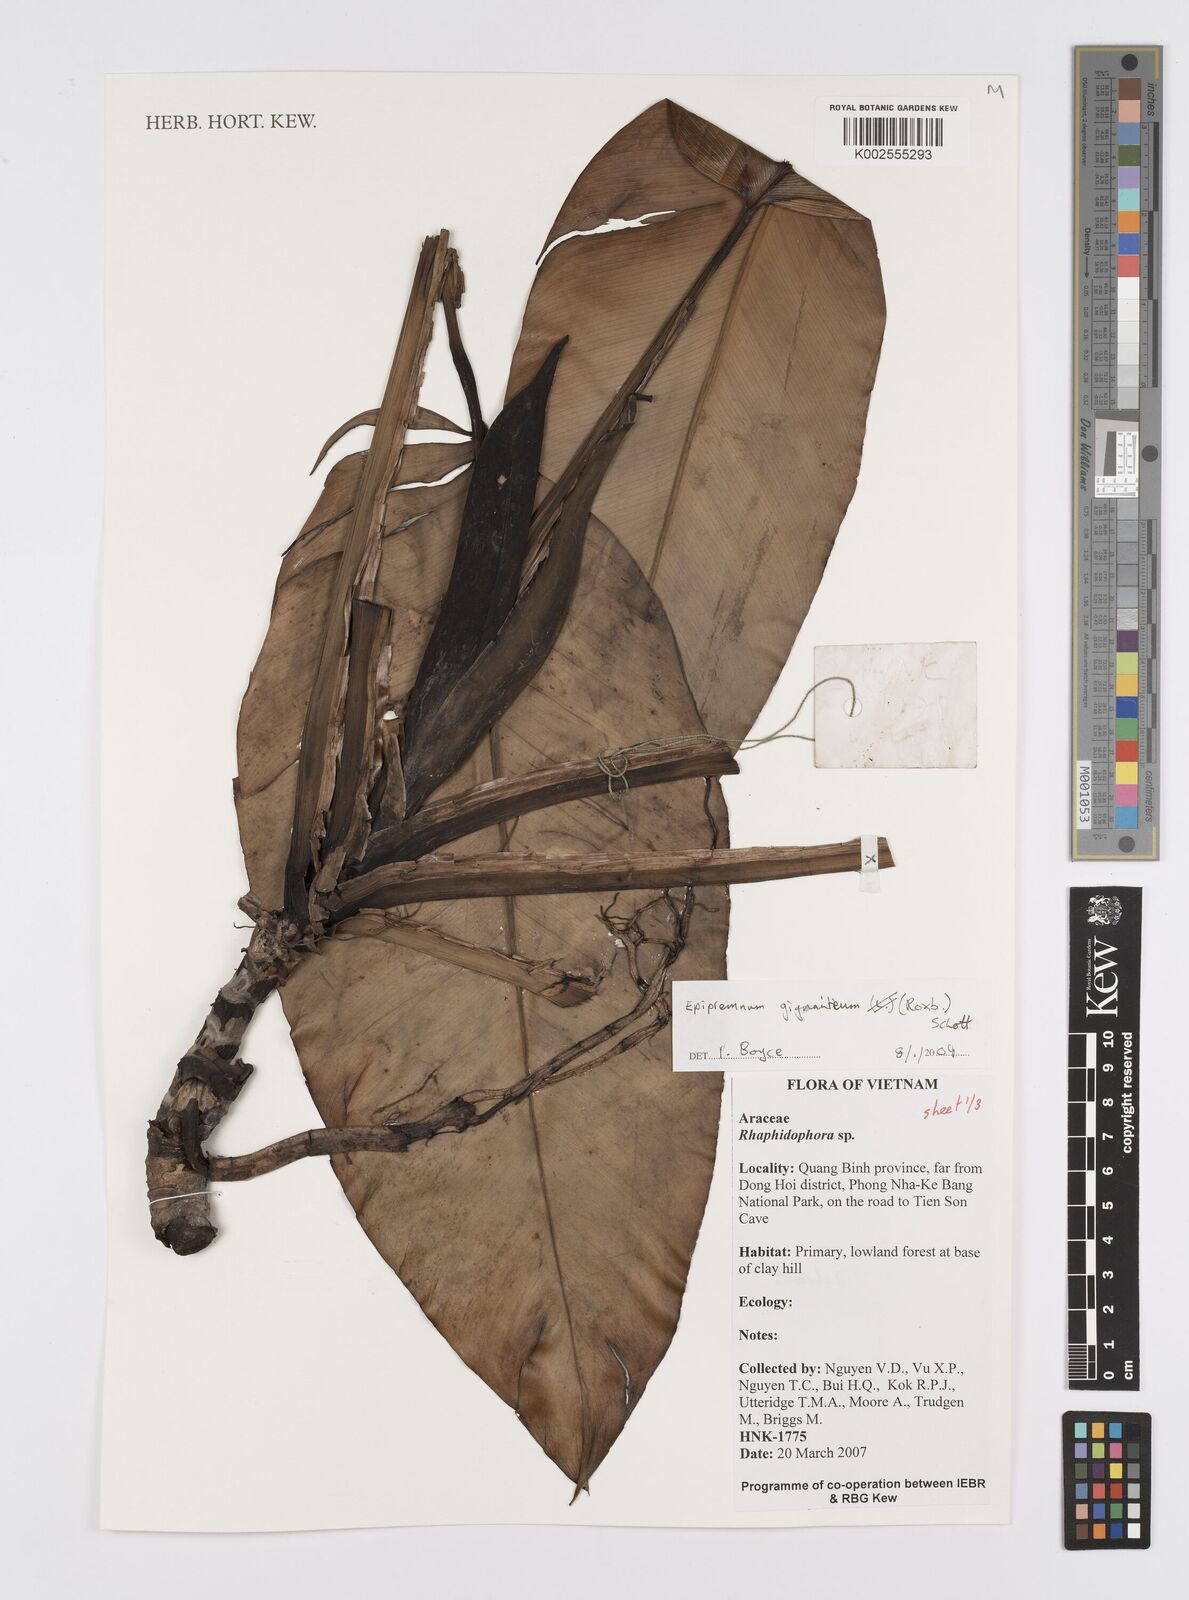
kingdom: Plantae
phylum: Tracheophyta
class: Liliopsida
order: Alismatales
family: Araceae
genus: Epipremnum
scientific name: Epipremnum giganteum
